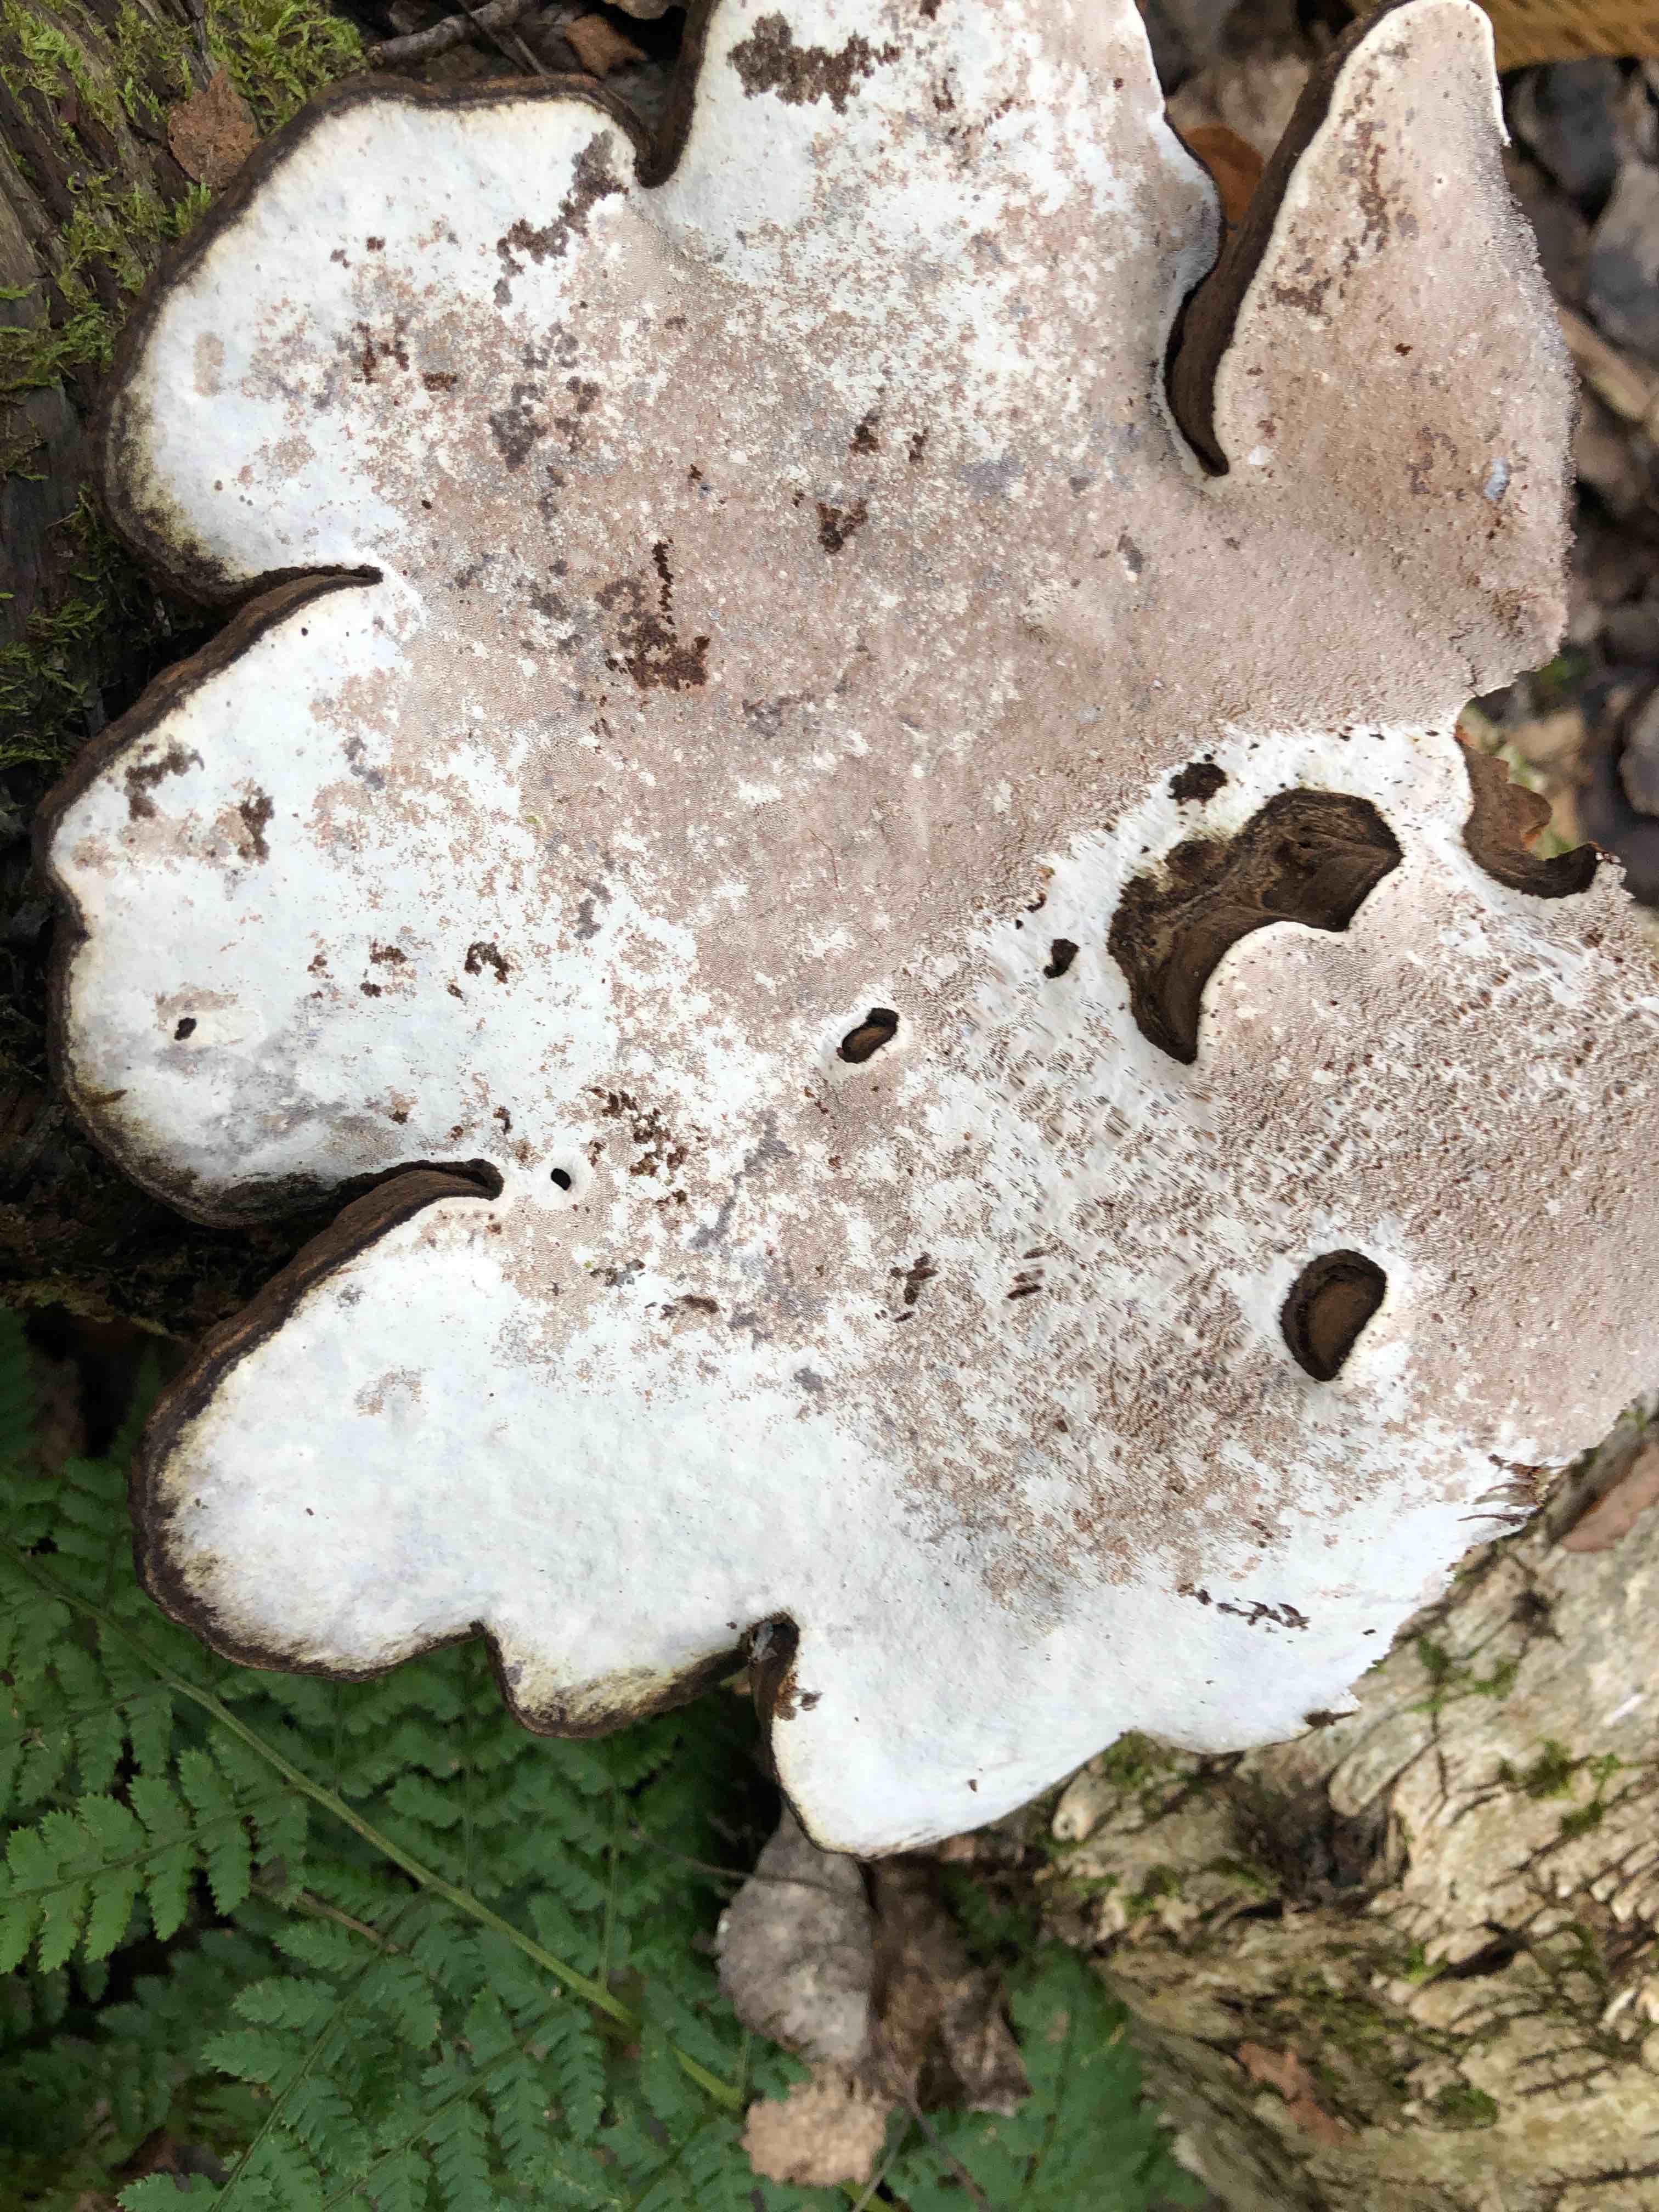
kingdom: Fungi
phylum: Basidiomycota
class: Agaricomycetes
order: Polyporales
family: Polyporaceae
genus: Ganoderma
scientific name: Ganoderma applanatum
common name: flad lakporesvamp
